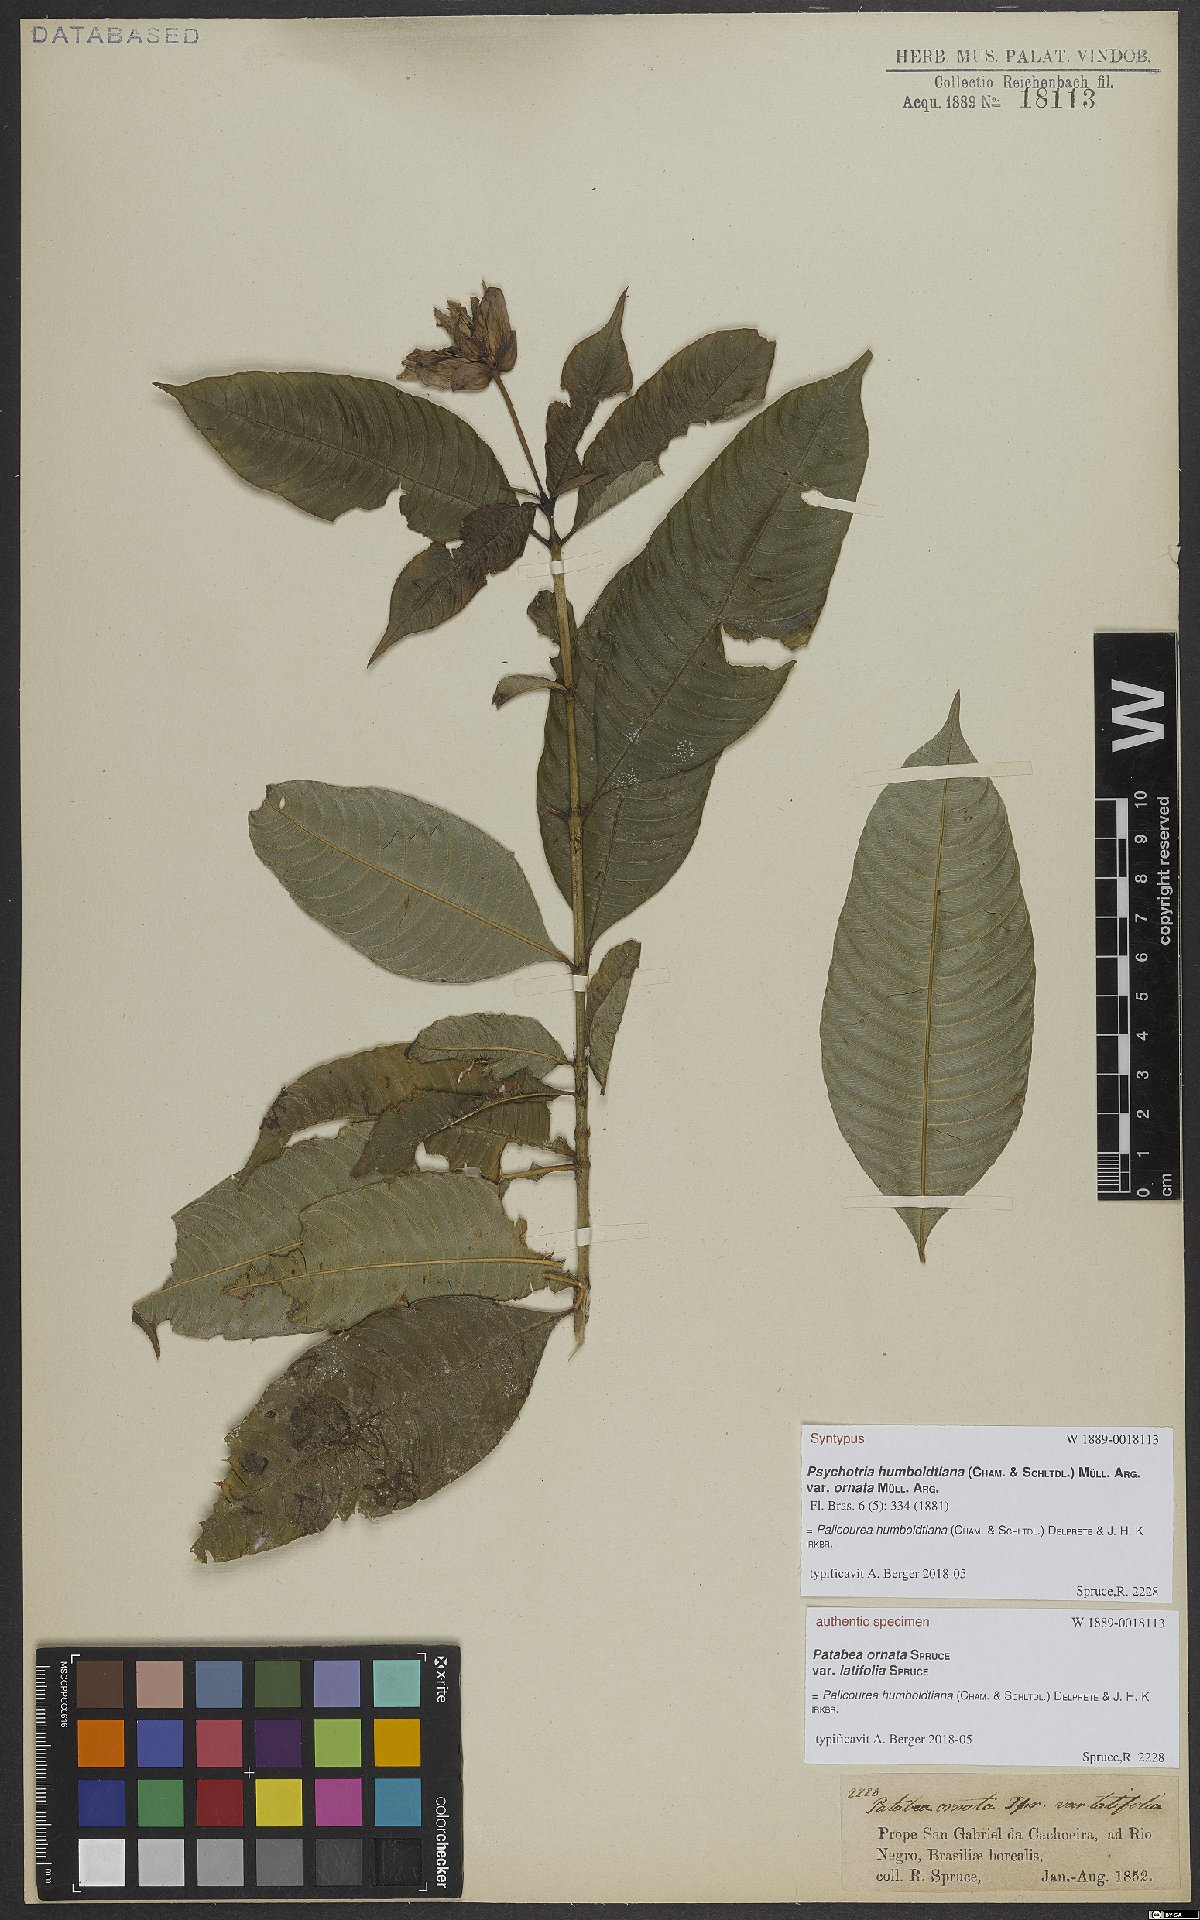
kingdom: Plantae
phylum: Tracheophyta
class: Magnoliopsida
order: Gentianales
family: Rubiaceae
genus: Palicourea
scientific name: Palicourea humboldtiana
